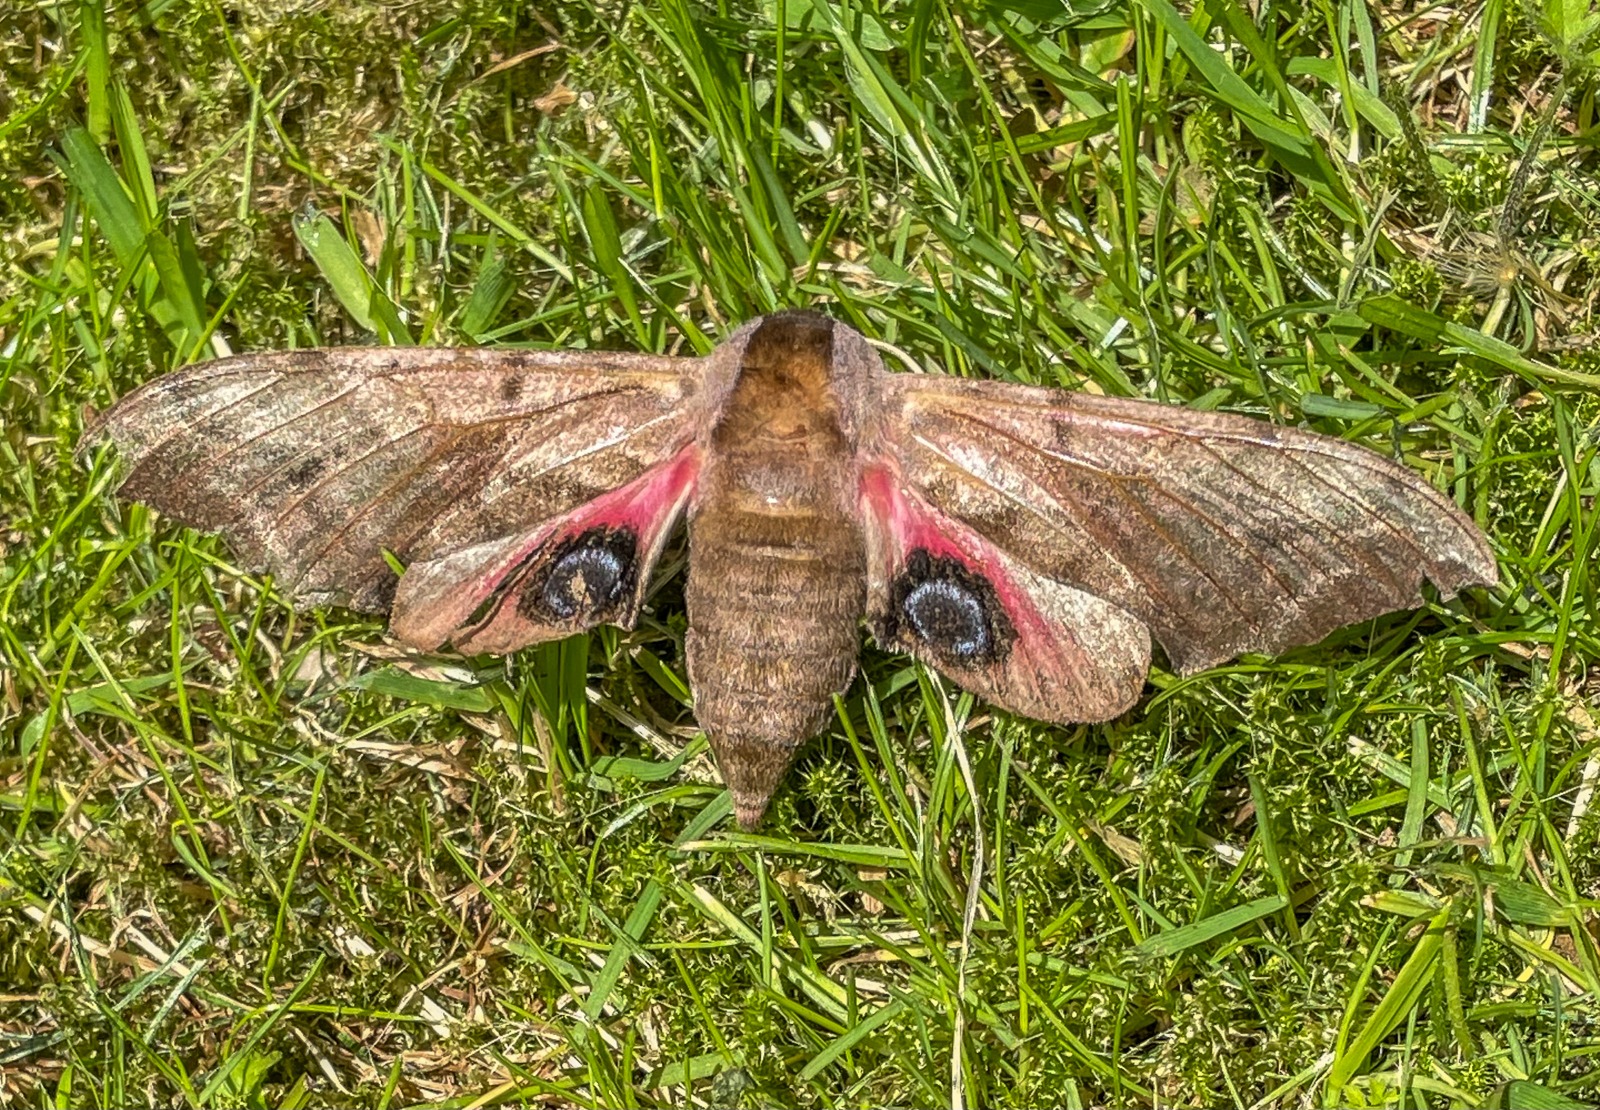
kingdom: Animalia
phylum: Arthropoda
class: Insecta
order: Lepidoptera
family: Sphingidae
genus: Smerinthus
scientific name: Smerinthus ocellata
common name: Aftenpåfugleøje
